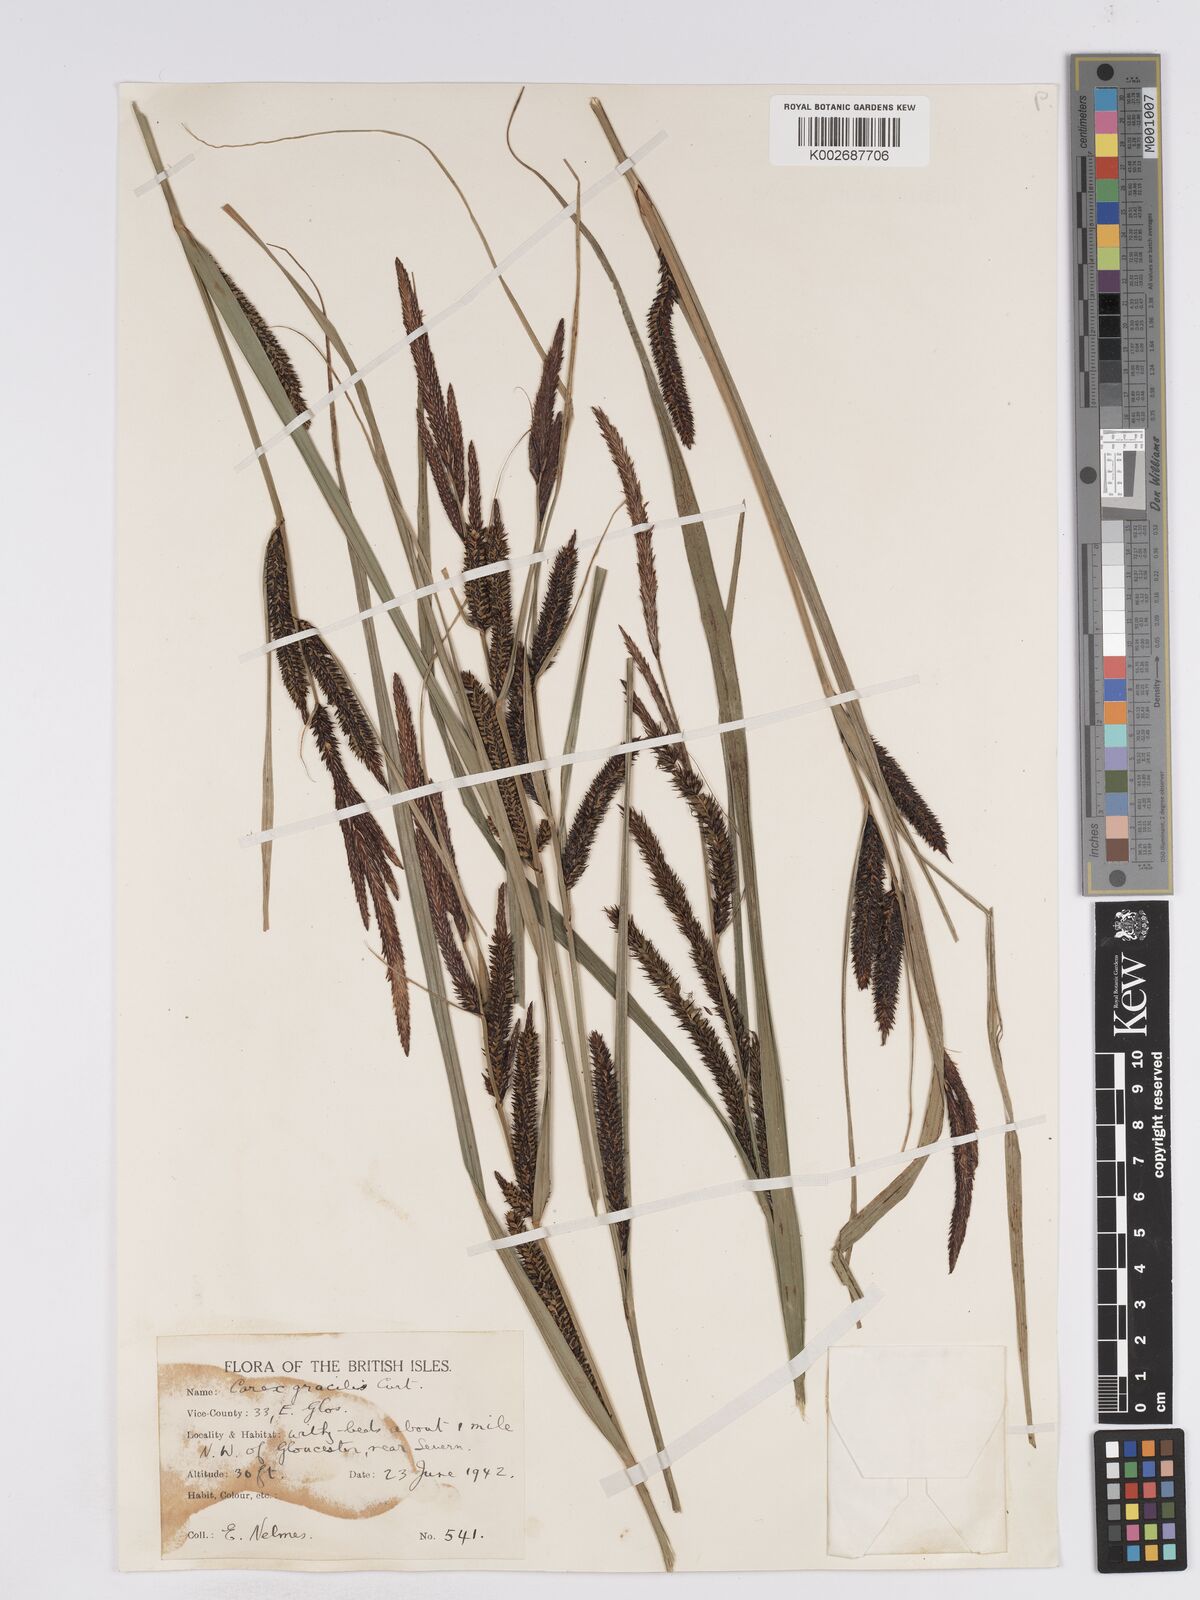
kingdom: Plantae
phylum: Tracheophyta
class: Liliopsida
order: Poales
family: Cyperaceae
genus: Carex
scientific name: Carex acuta
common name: Slender tufted-sedge
